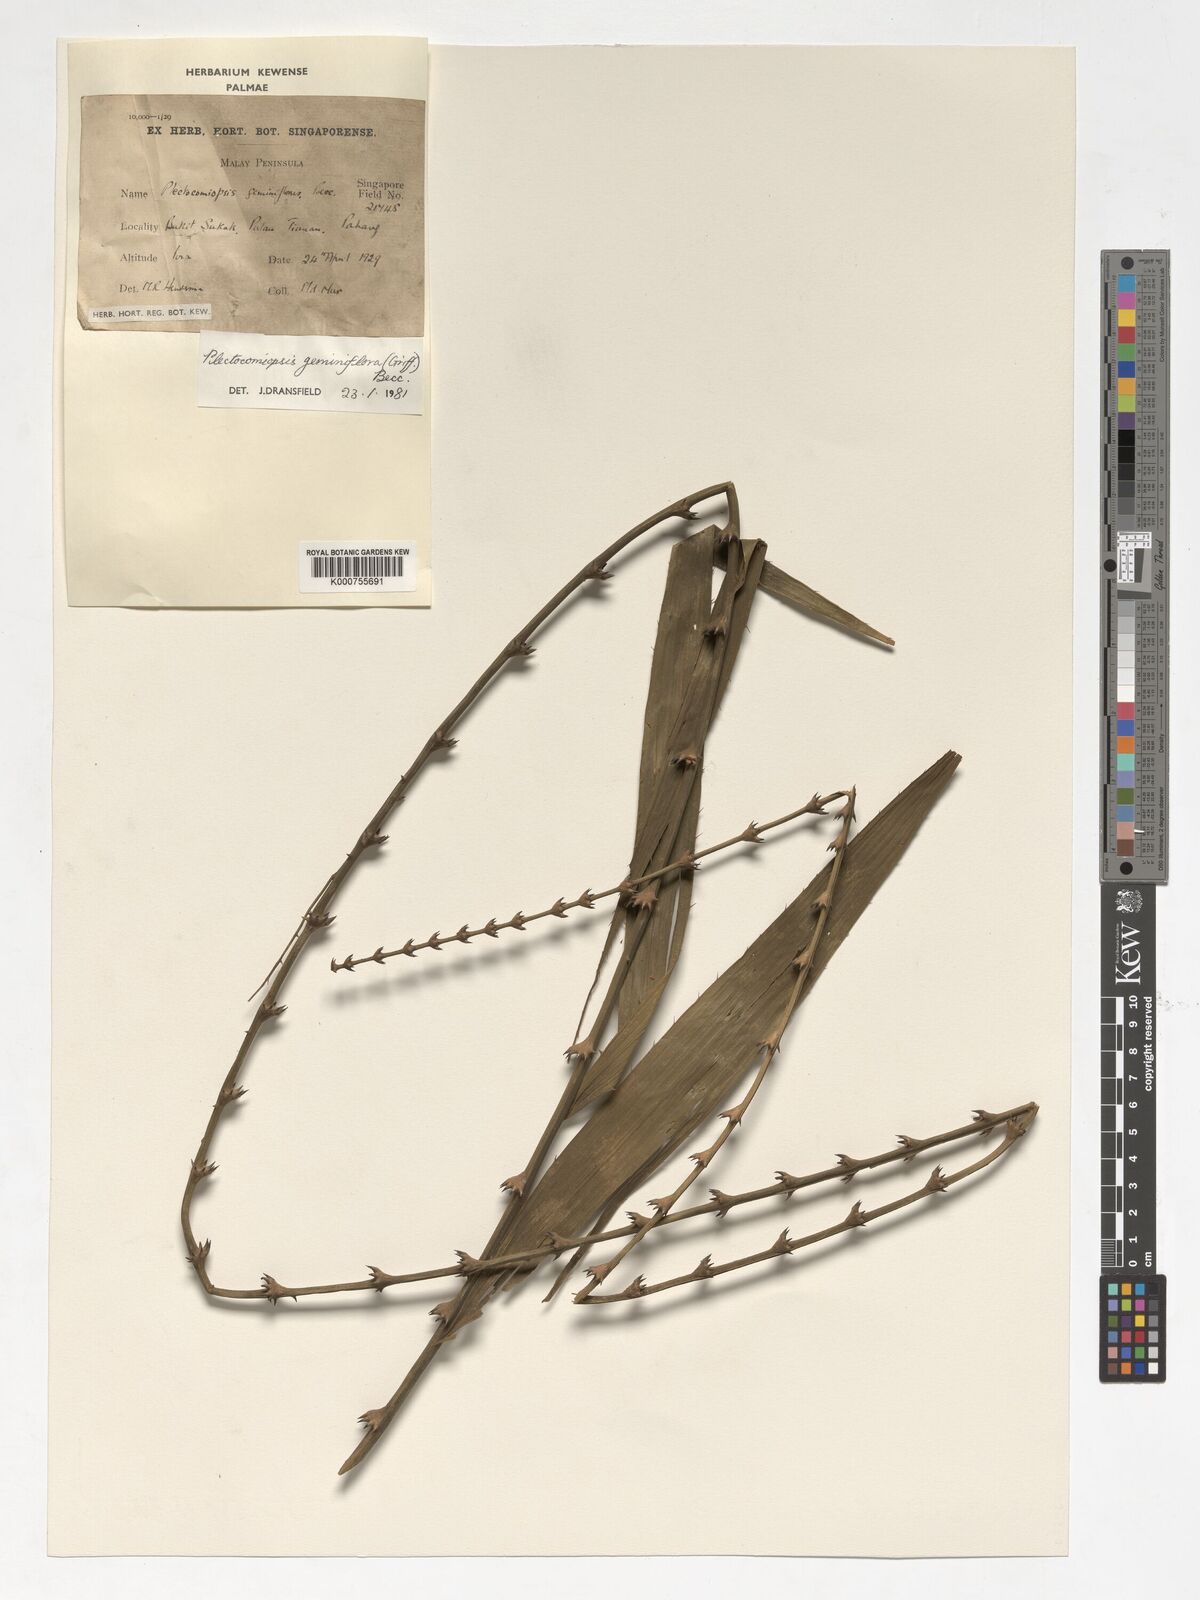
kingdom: Plantae
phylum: Tracheophyta
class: Liliopsida
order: Arecales
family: Arecaceae
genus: Plectocomiopsis
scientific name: Plectocomiopsis geminiflora
